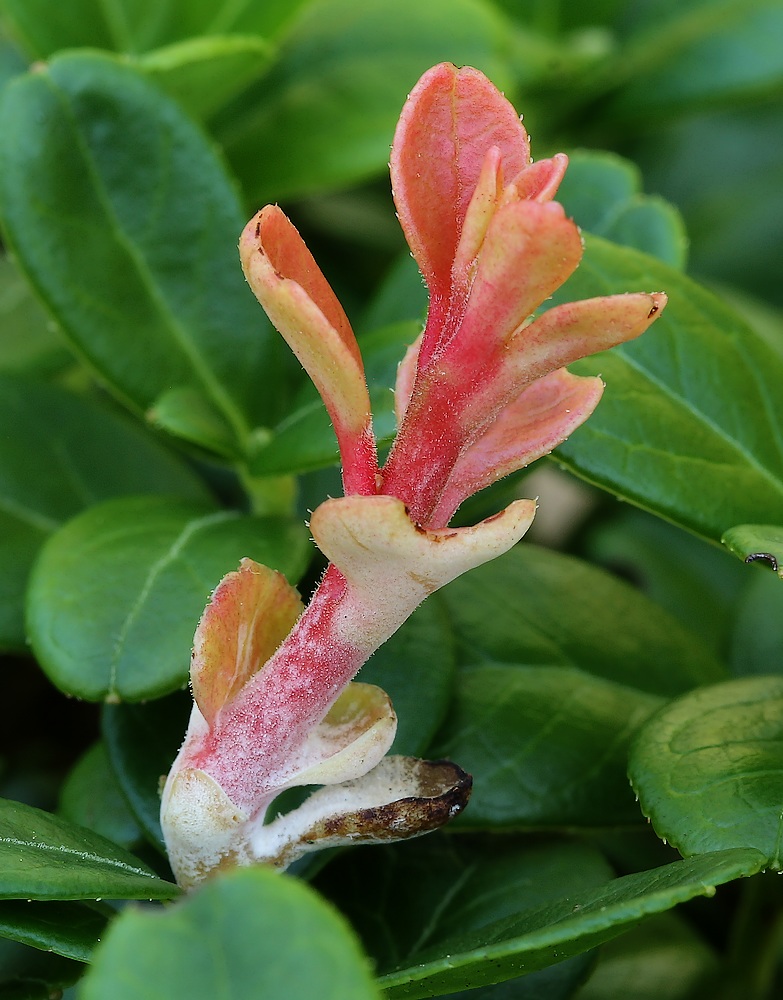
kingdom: Fungi
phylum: Basidiomycota
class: Exobasidiomycetes
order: Exobasidiales
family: Exobasidiaceae
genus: Exobasidium
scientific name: Exobasidium vaccinii
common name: tyttebærblad-bøllesvamp
